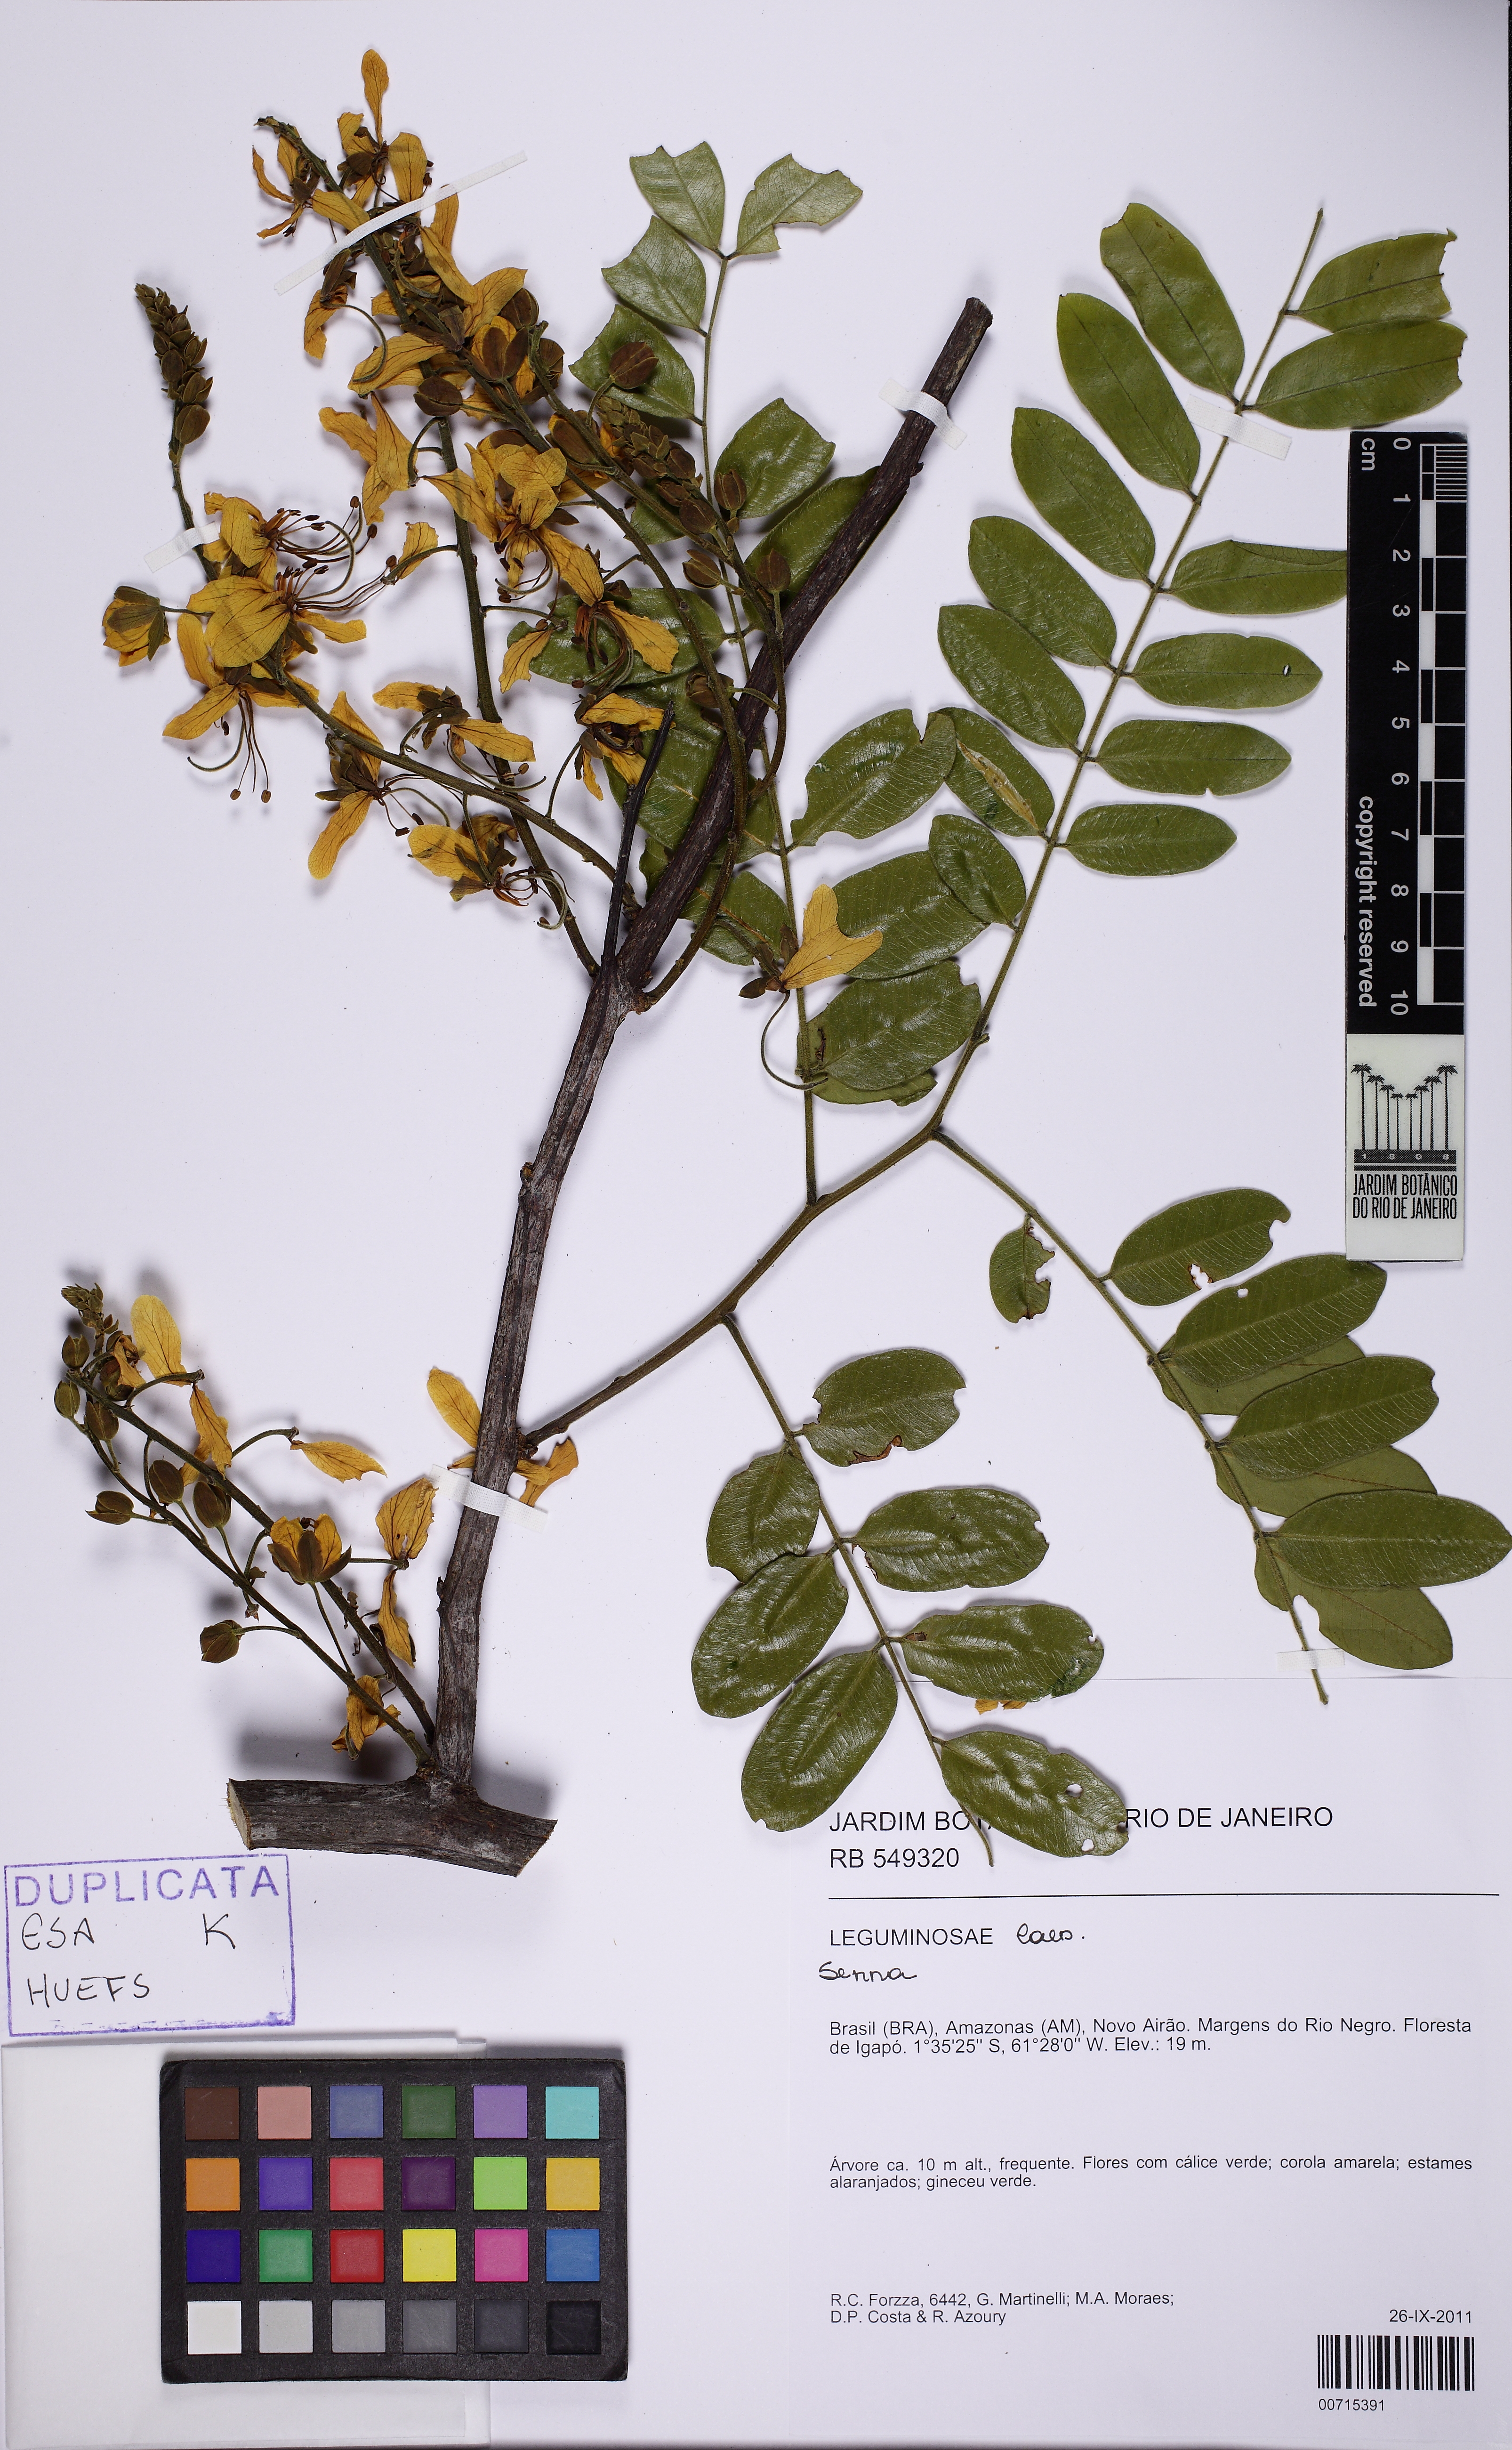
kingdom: Plantae
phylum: Tracheophyta
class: Magnoliopsida
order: Fabales
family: Fabaceae
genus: Cassia
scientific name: Cassia
